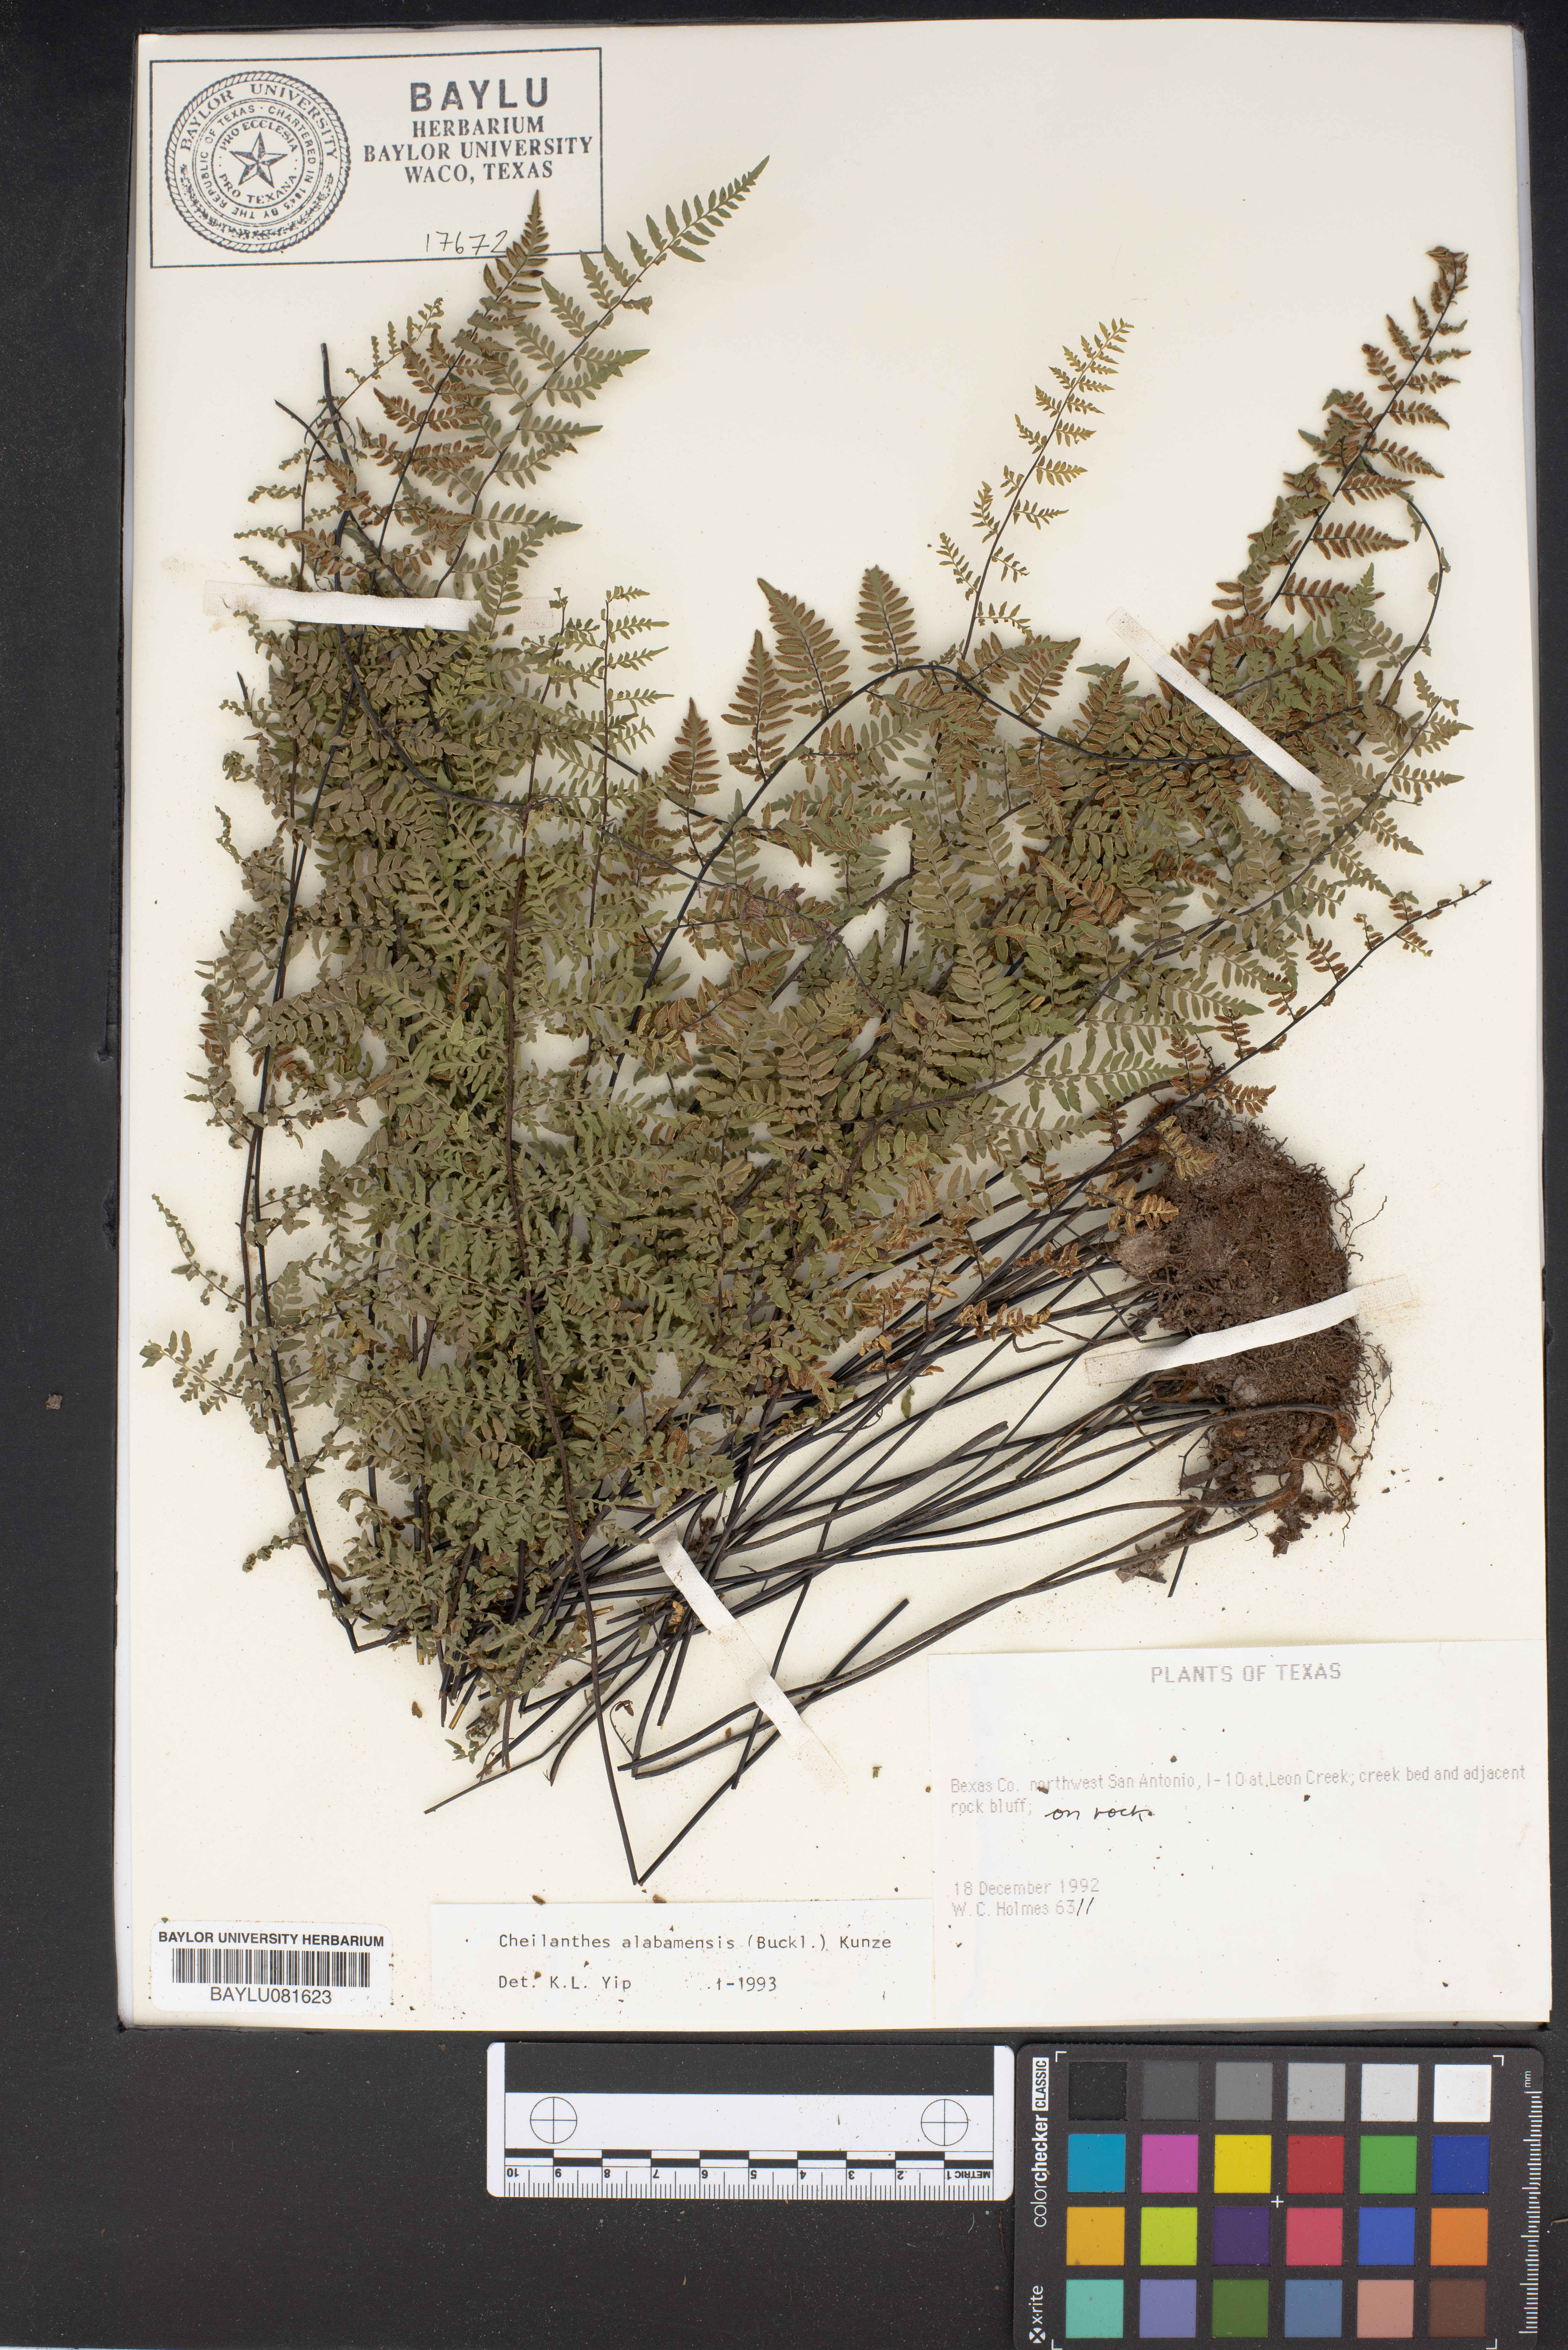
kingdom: Plantae
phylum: Tracheophyta
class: Polypodiopsida
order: Polypodiales
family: Pteridaceae
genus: Myriopteris
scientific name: Myriopteris alabamensis
